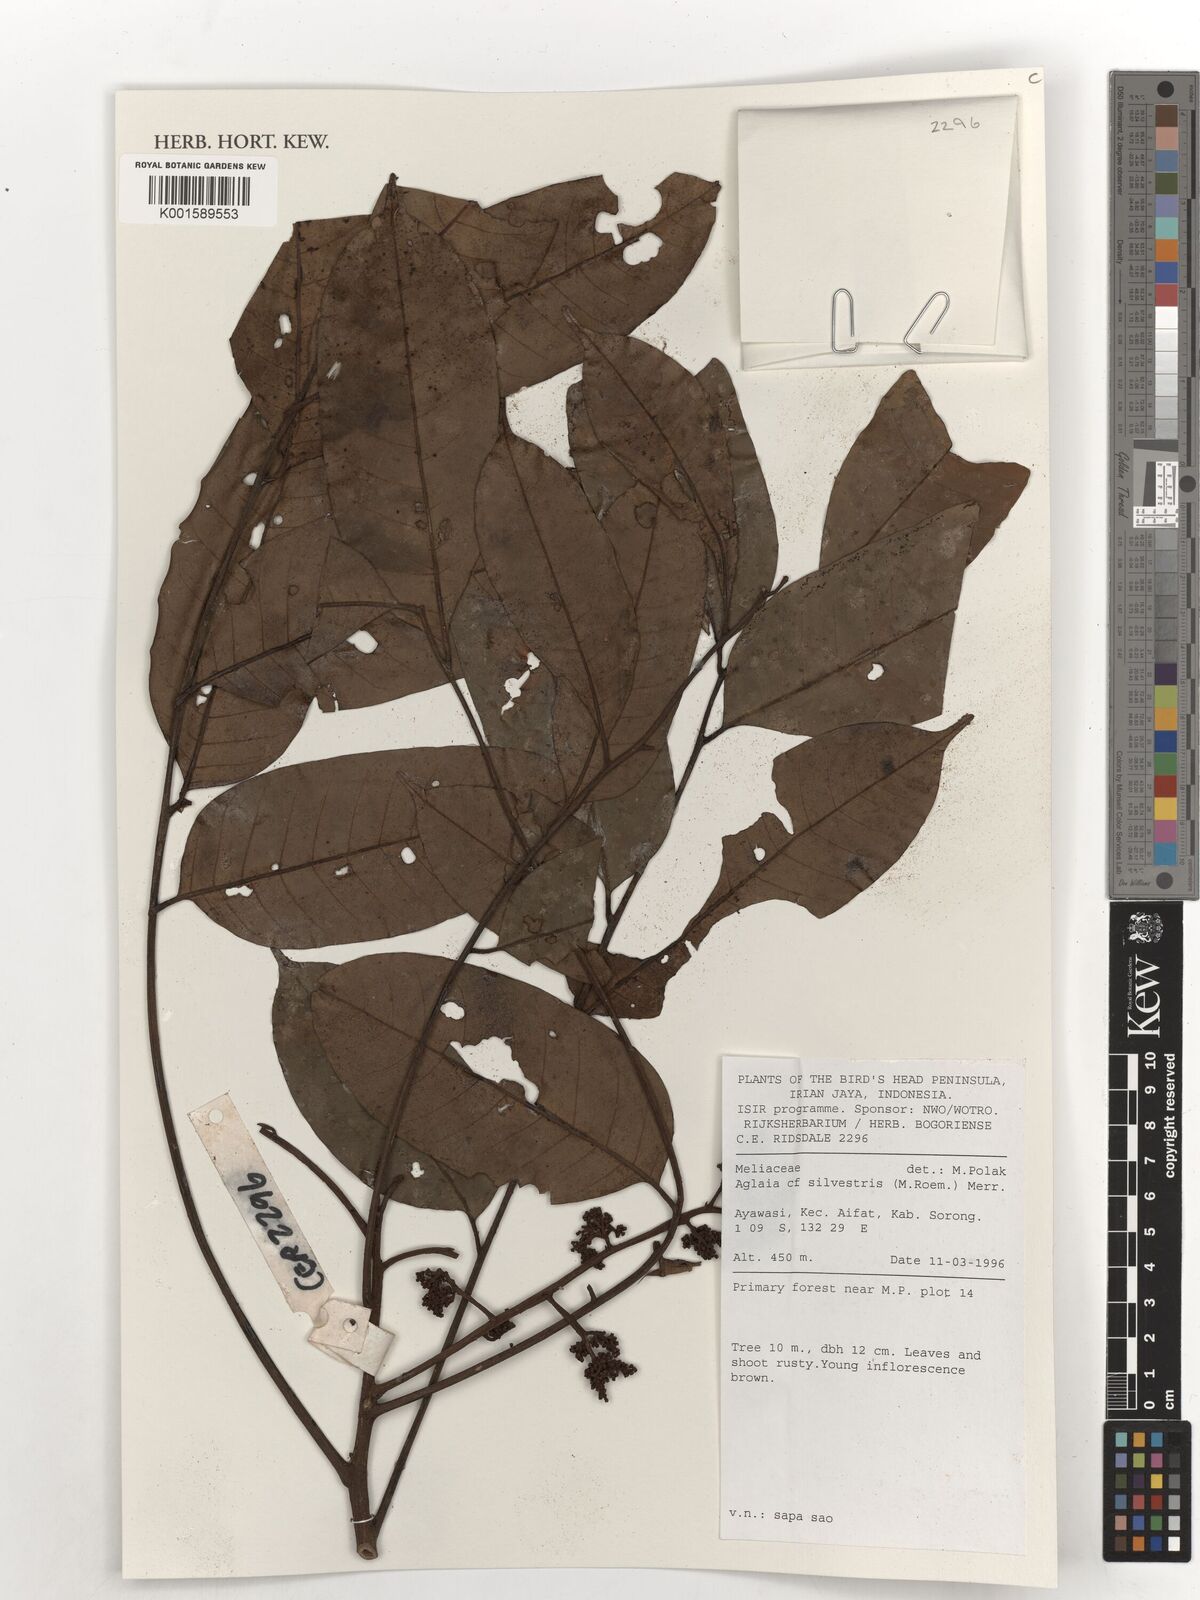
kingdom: Plantae
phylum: Tracheophyta
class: Magnoliopsida
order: Sapindales
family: Meliaceae
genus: Aglaia
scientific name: Aglaia silvestris
